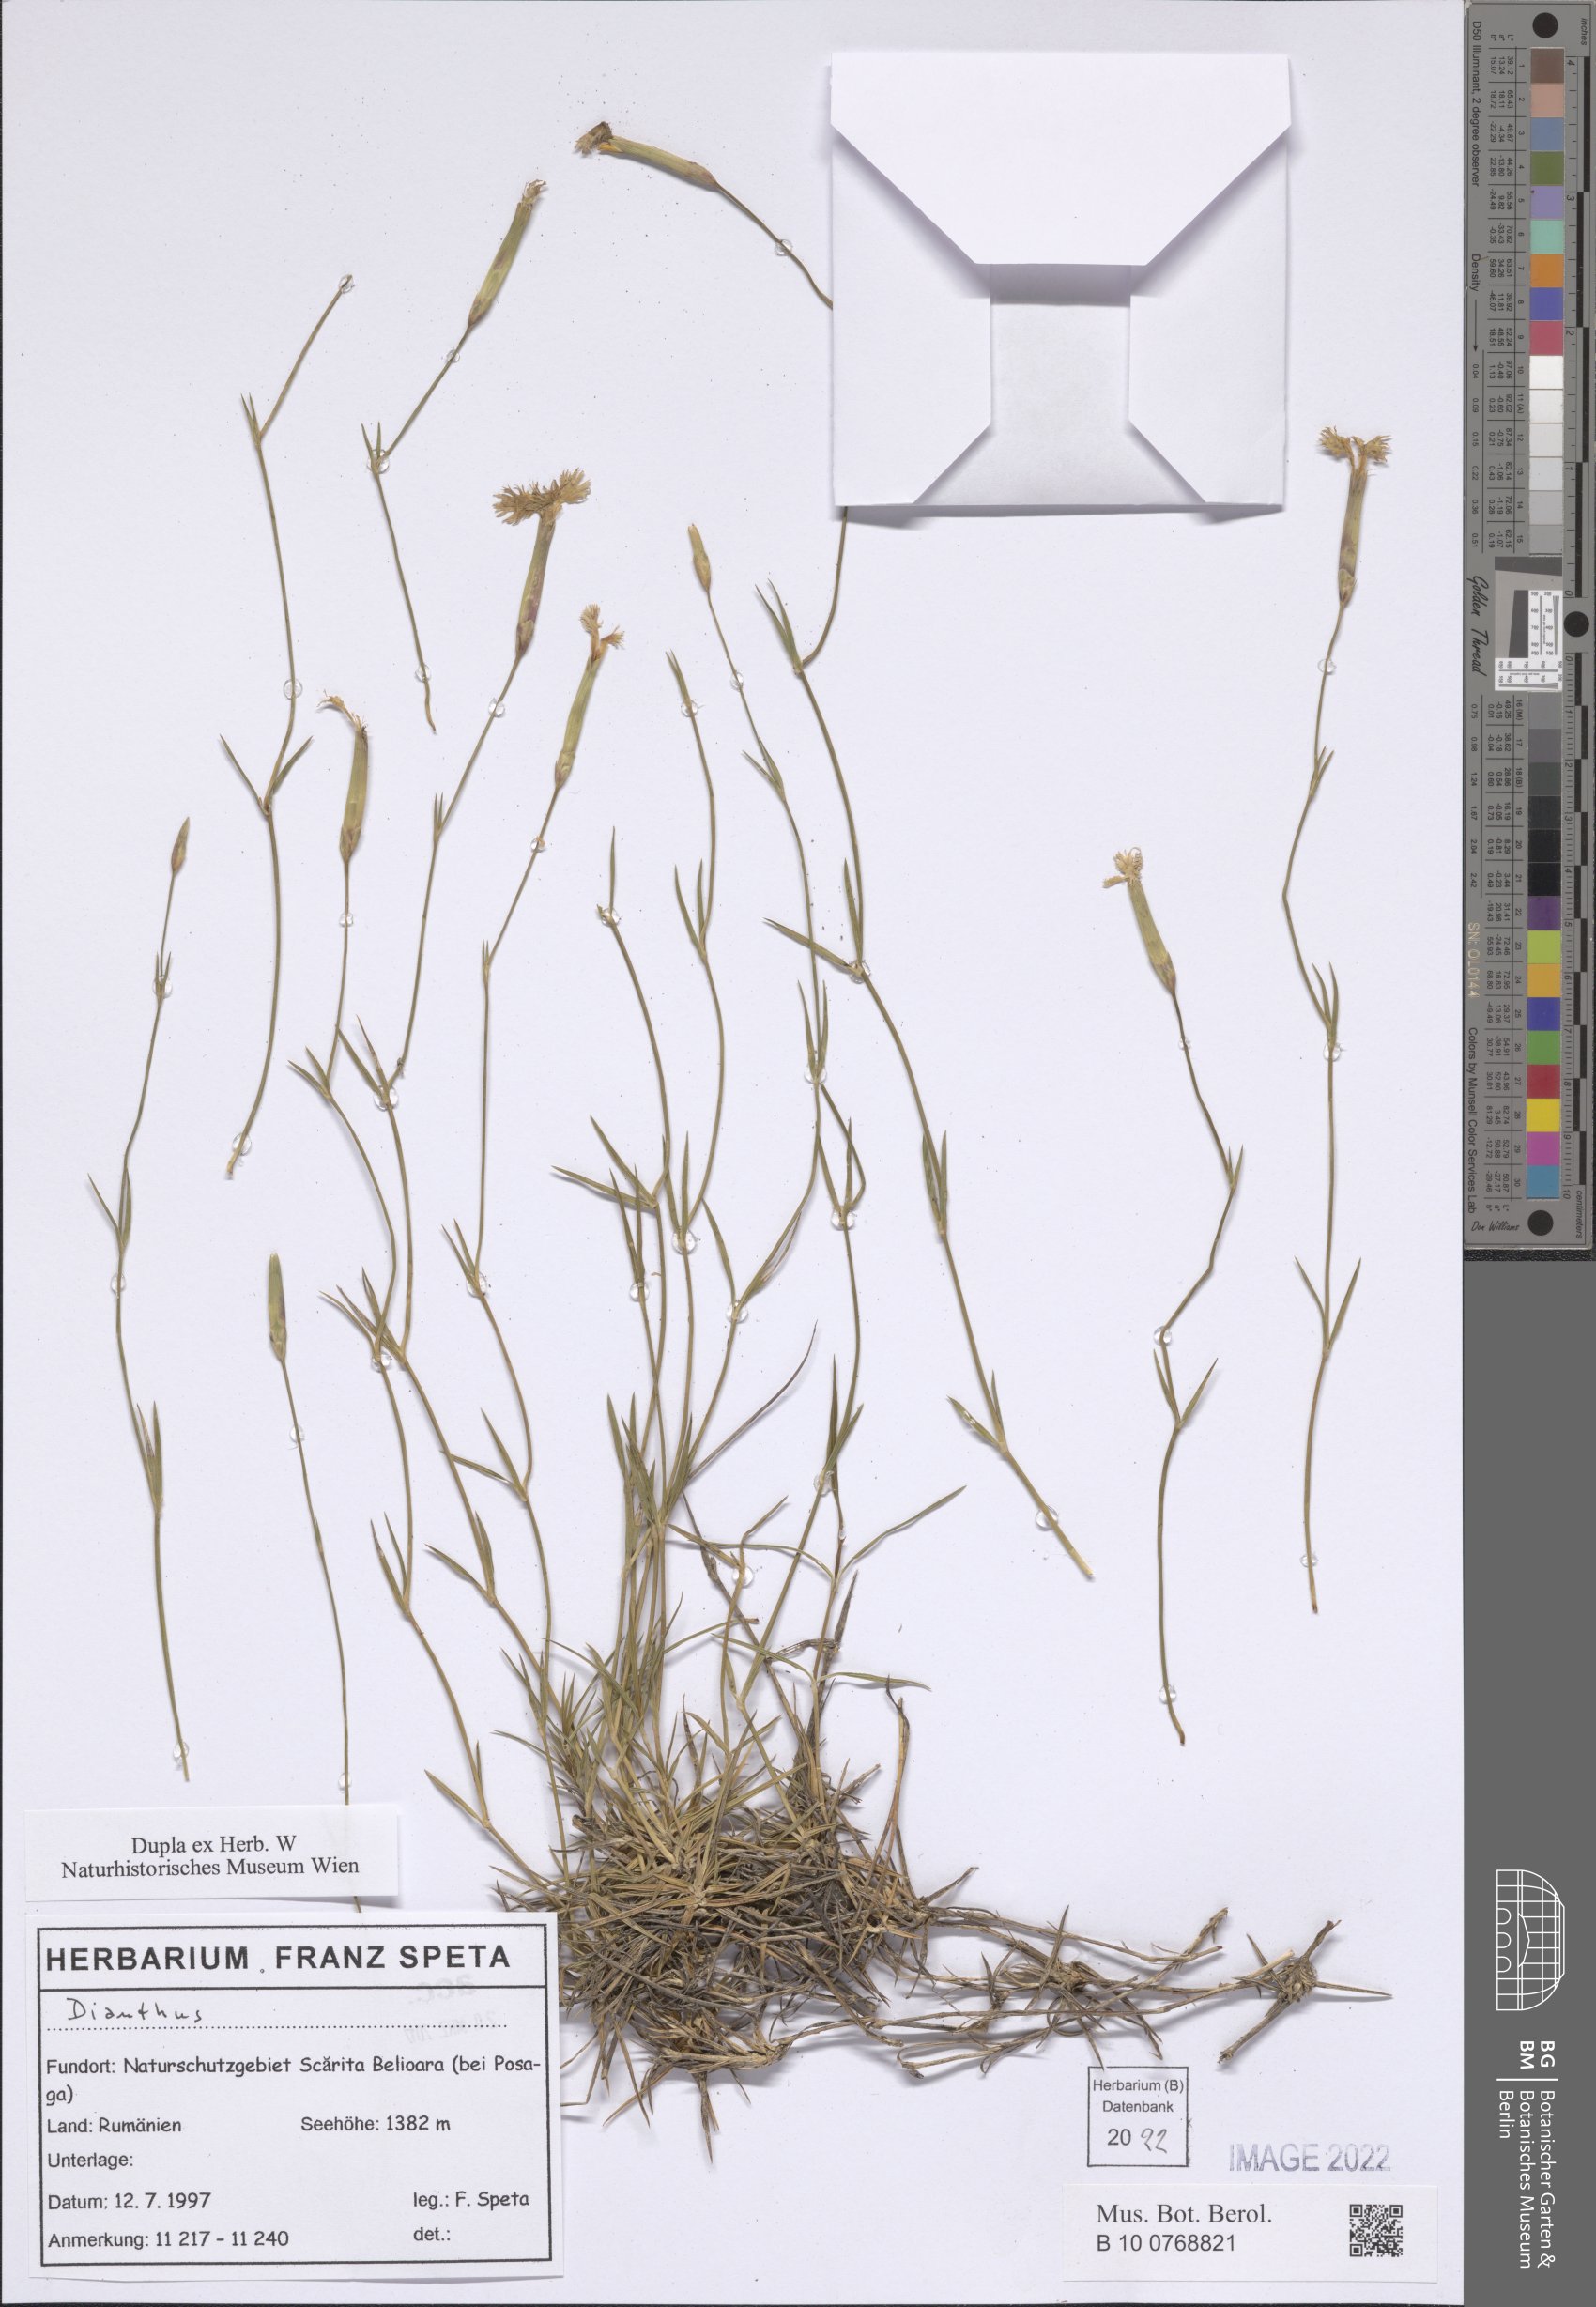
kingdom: Plantae
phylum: Tracheophyta
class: Magnoliopsida
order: Caryophyllales
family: Caryophyllaceae
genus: Dianthus
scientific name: Dianthus
